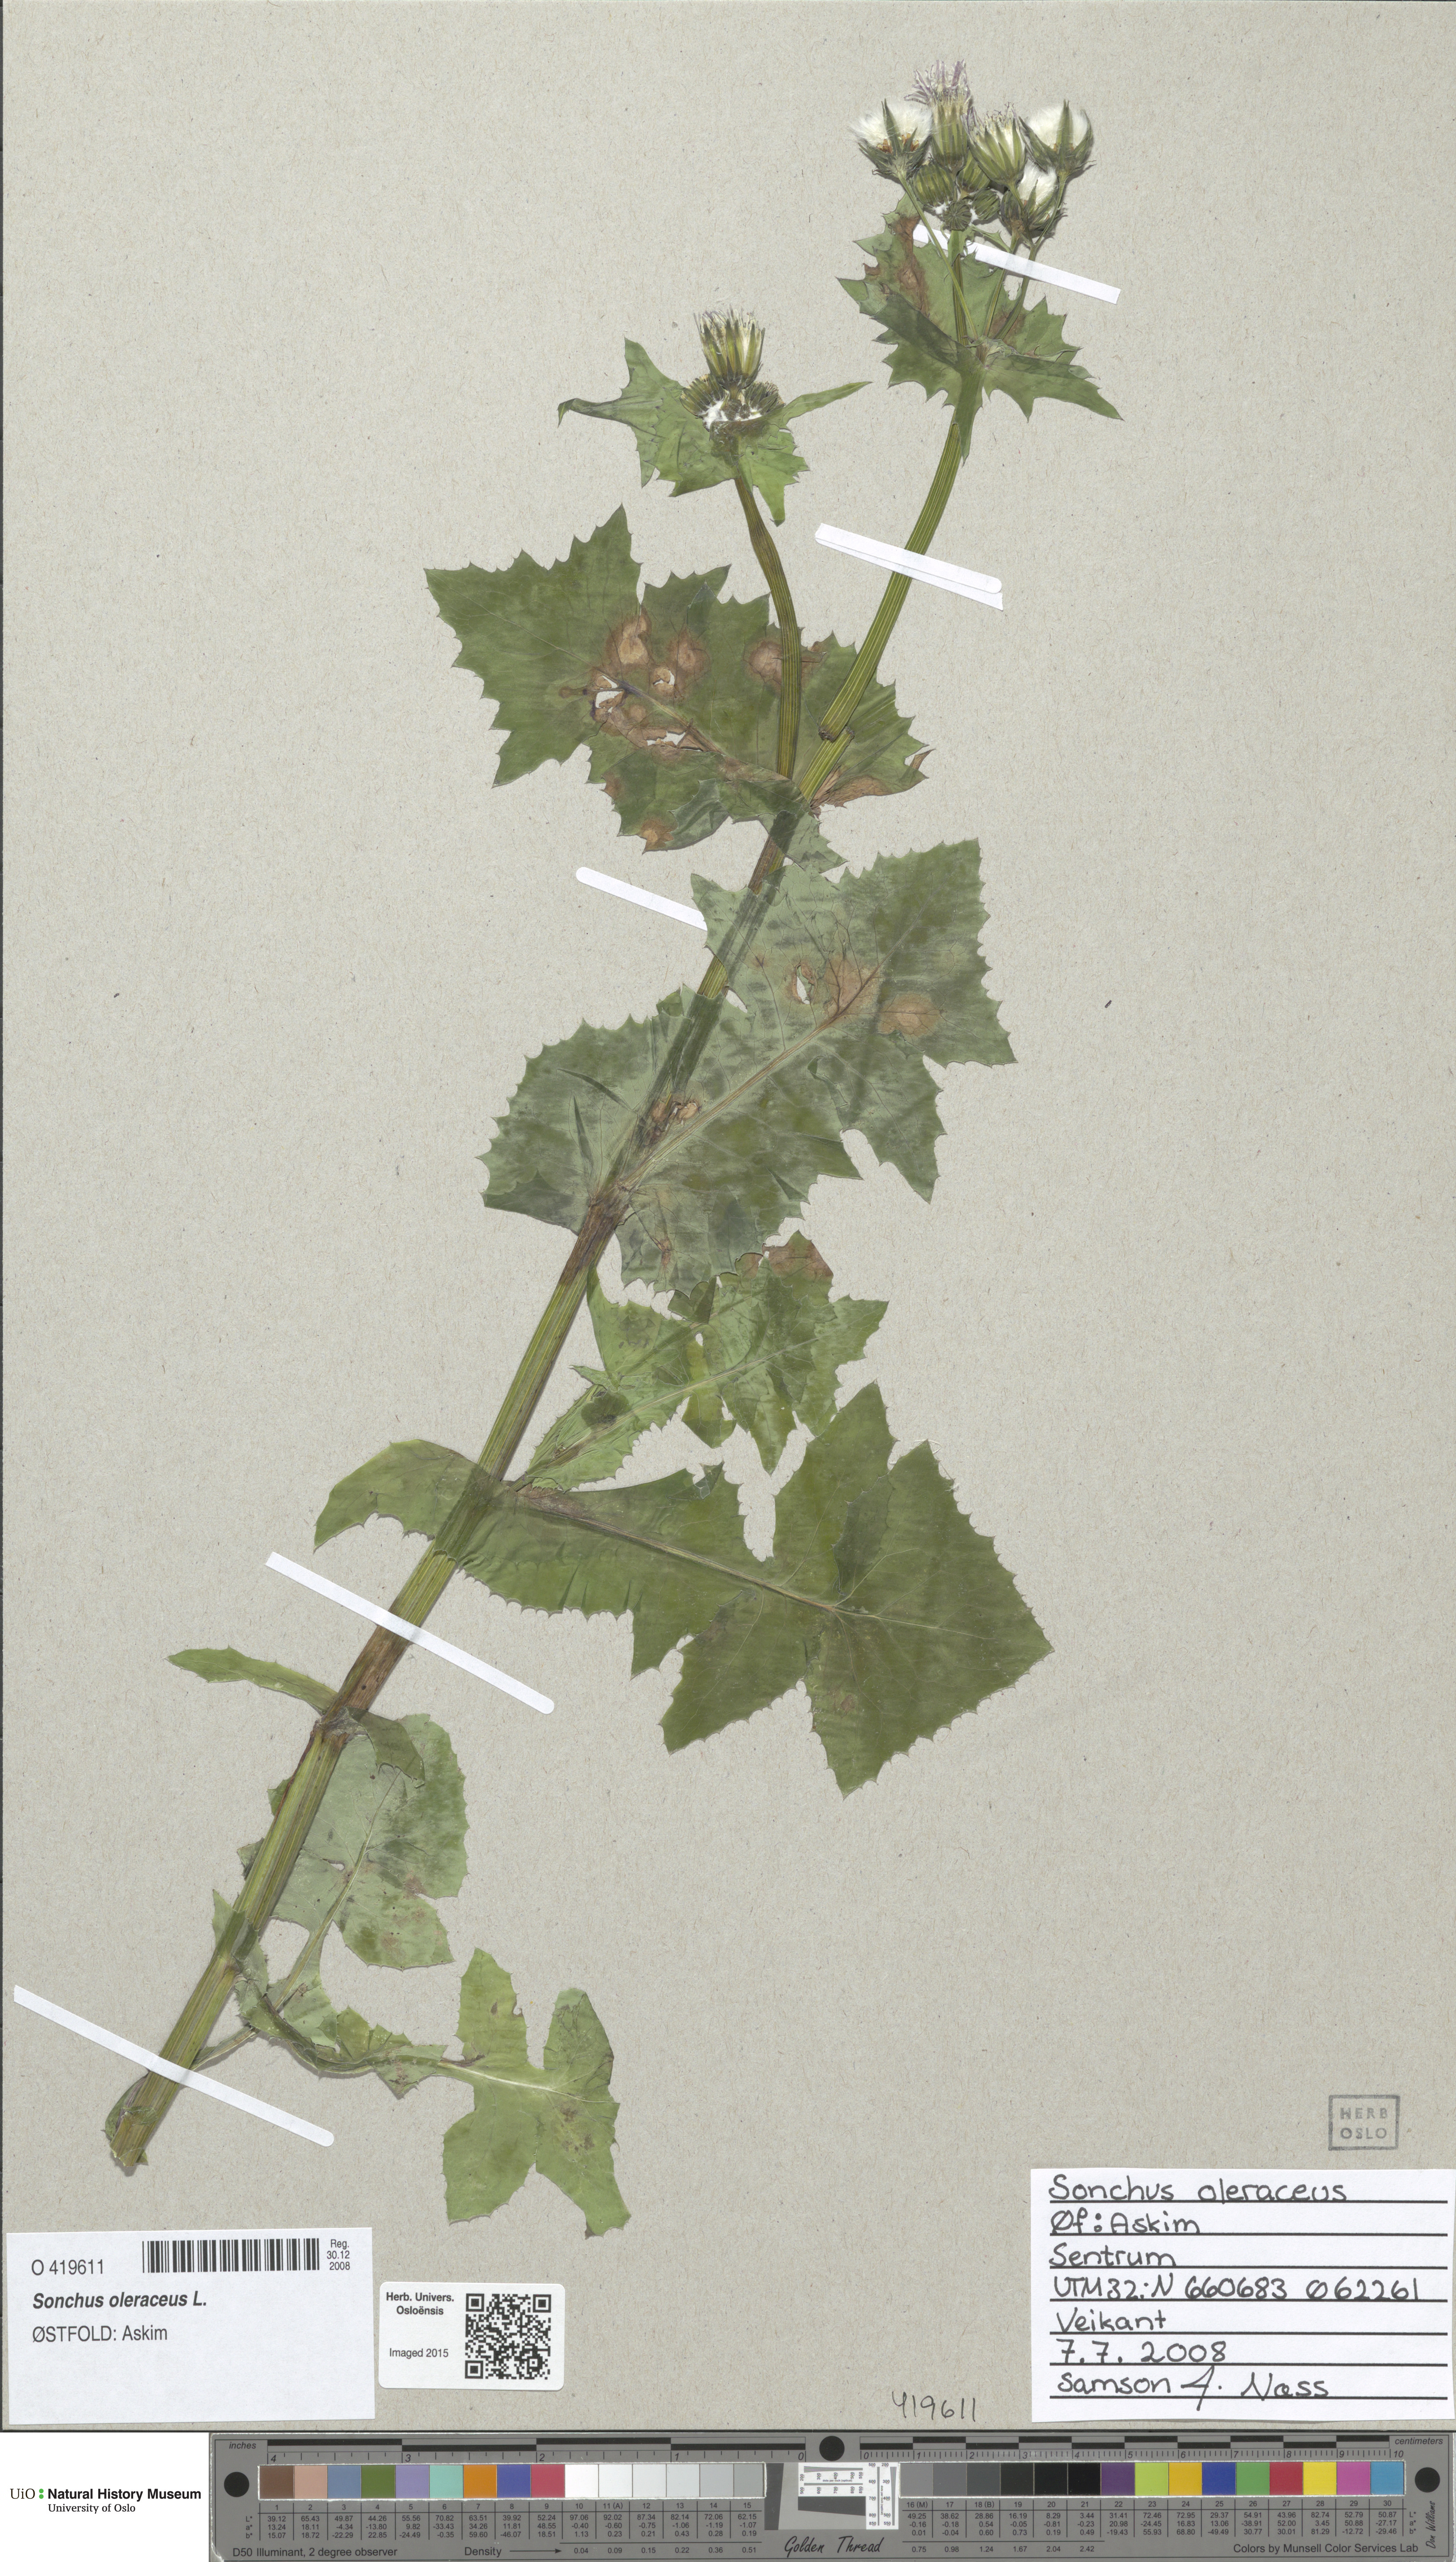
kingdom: Plantae
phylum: Tracheophyta
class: Magnoliopsida
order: Asterales
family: Asteraceae
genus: Sonchus
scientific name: Sonchus oleraceus
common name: Common sowthistle
